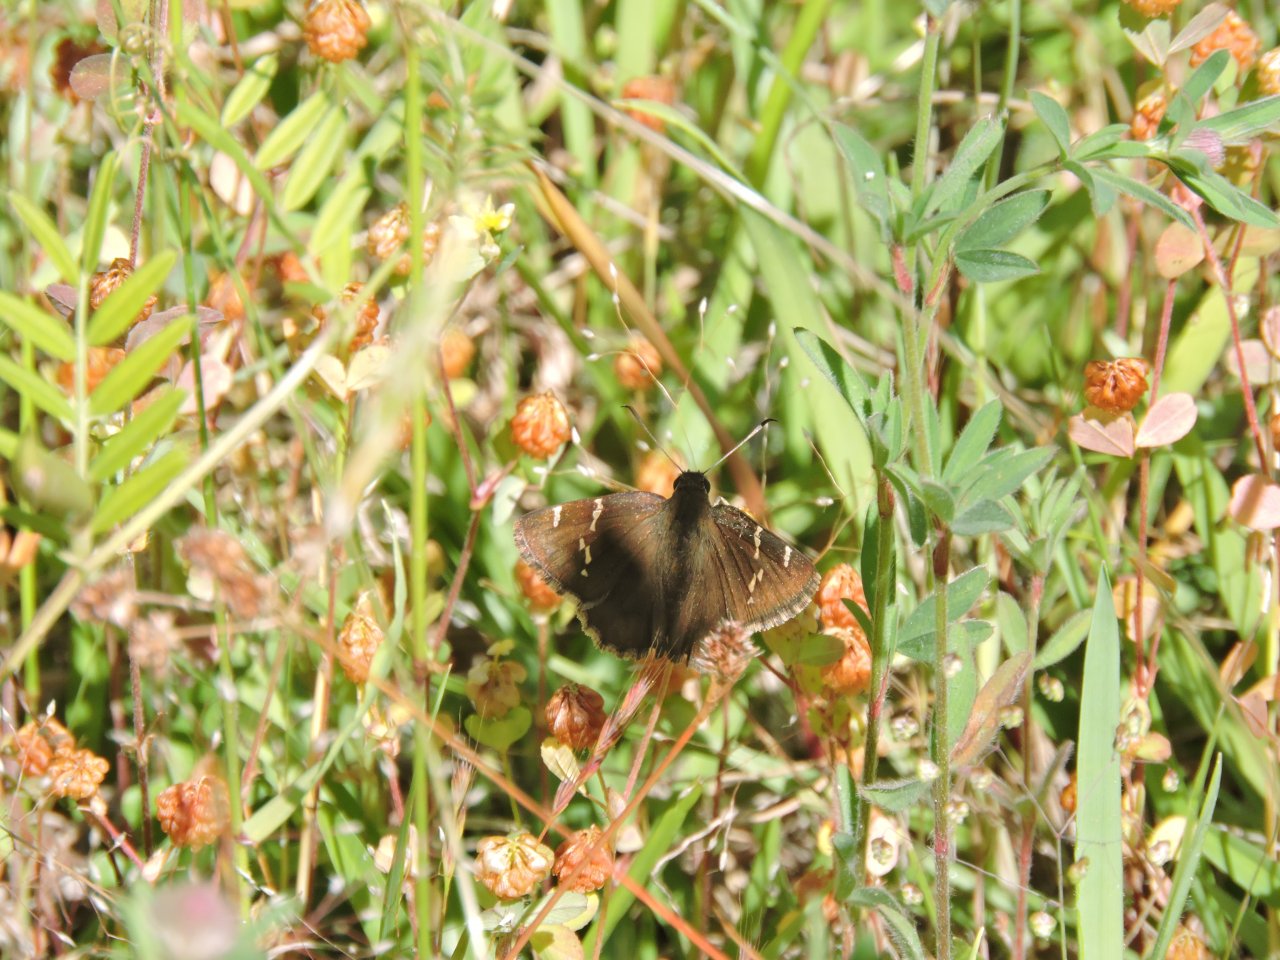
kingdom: Animalia
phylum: Arthropoda
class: Insecta
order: Lepidoptera
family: Hesperiidae
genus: Autochton
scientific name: Autochton
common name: Southern Cloudywing
